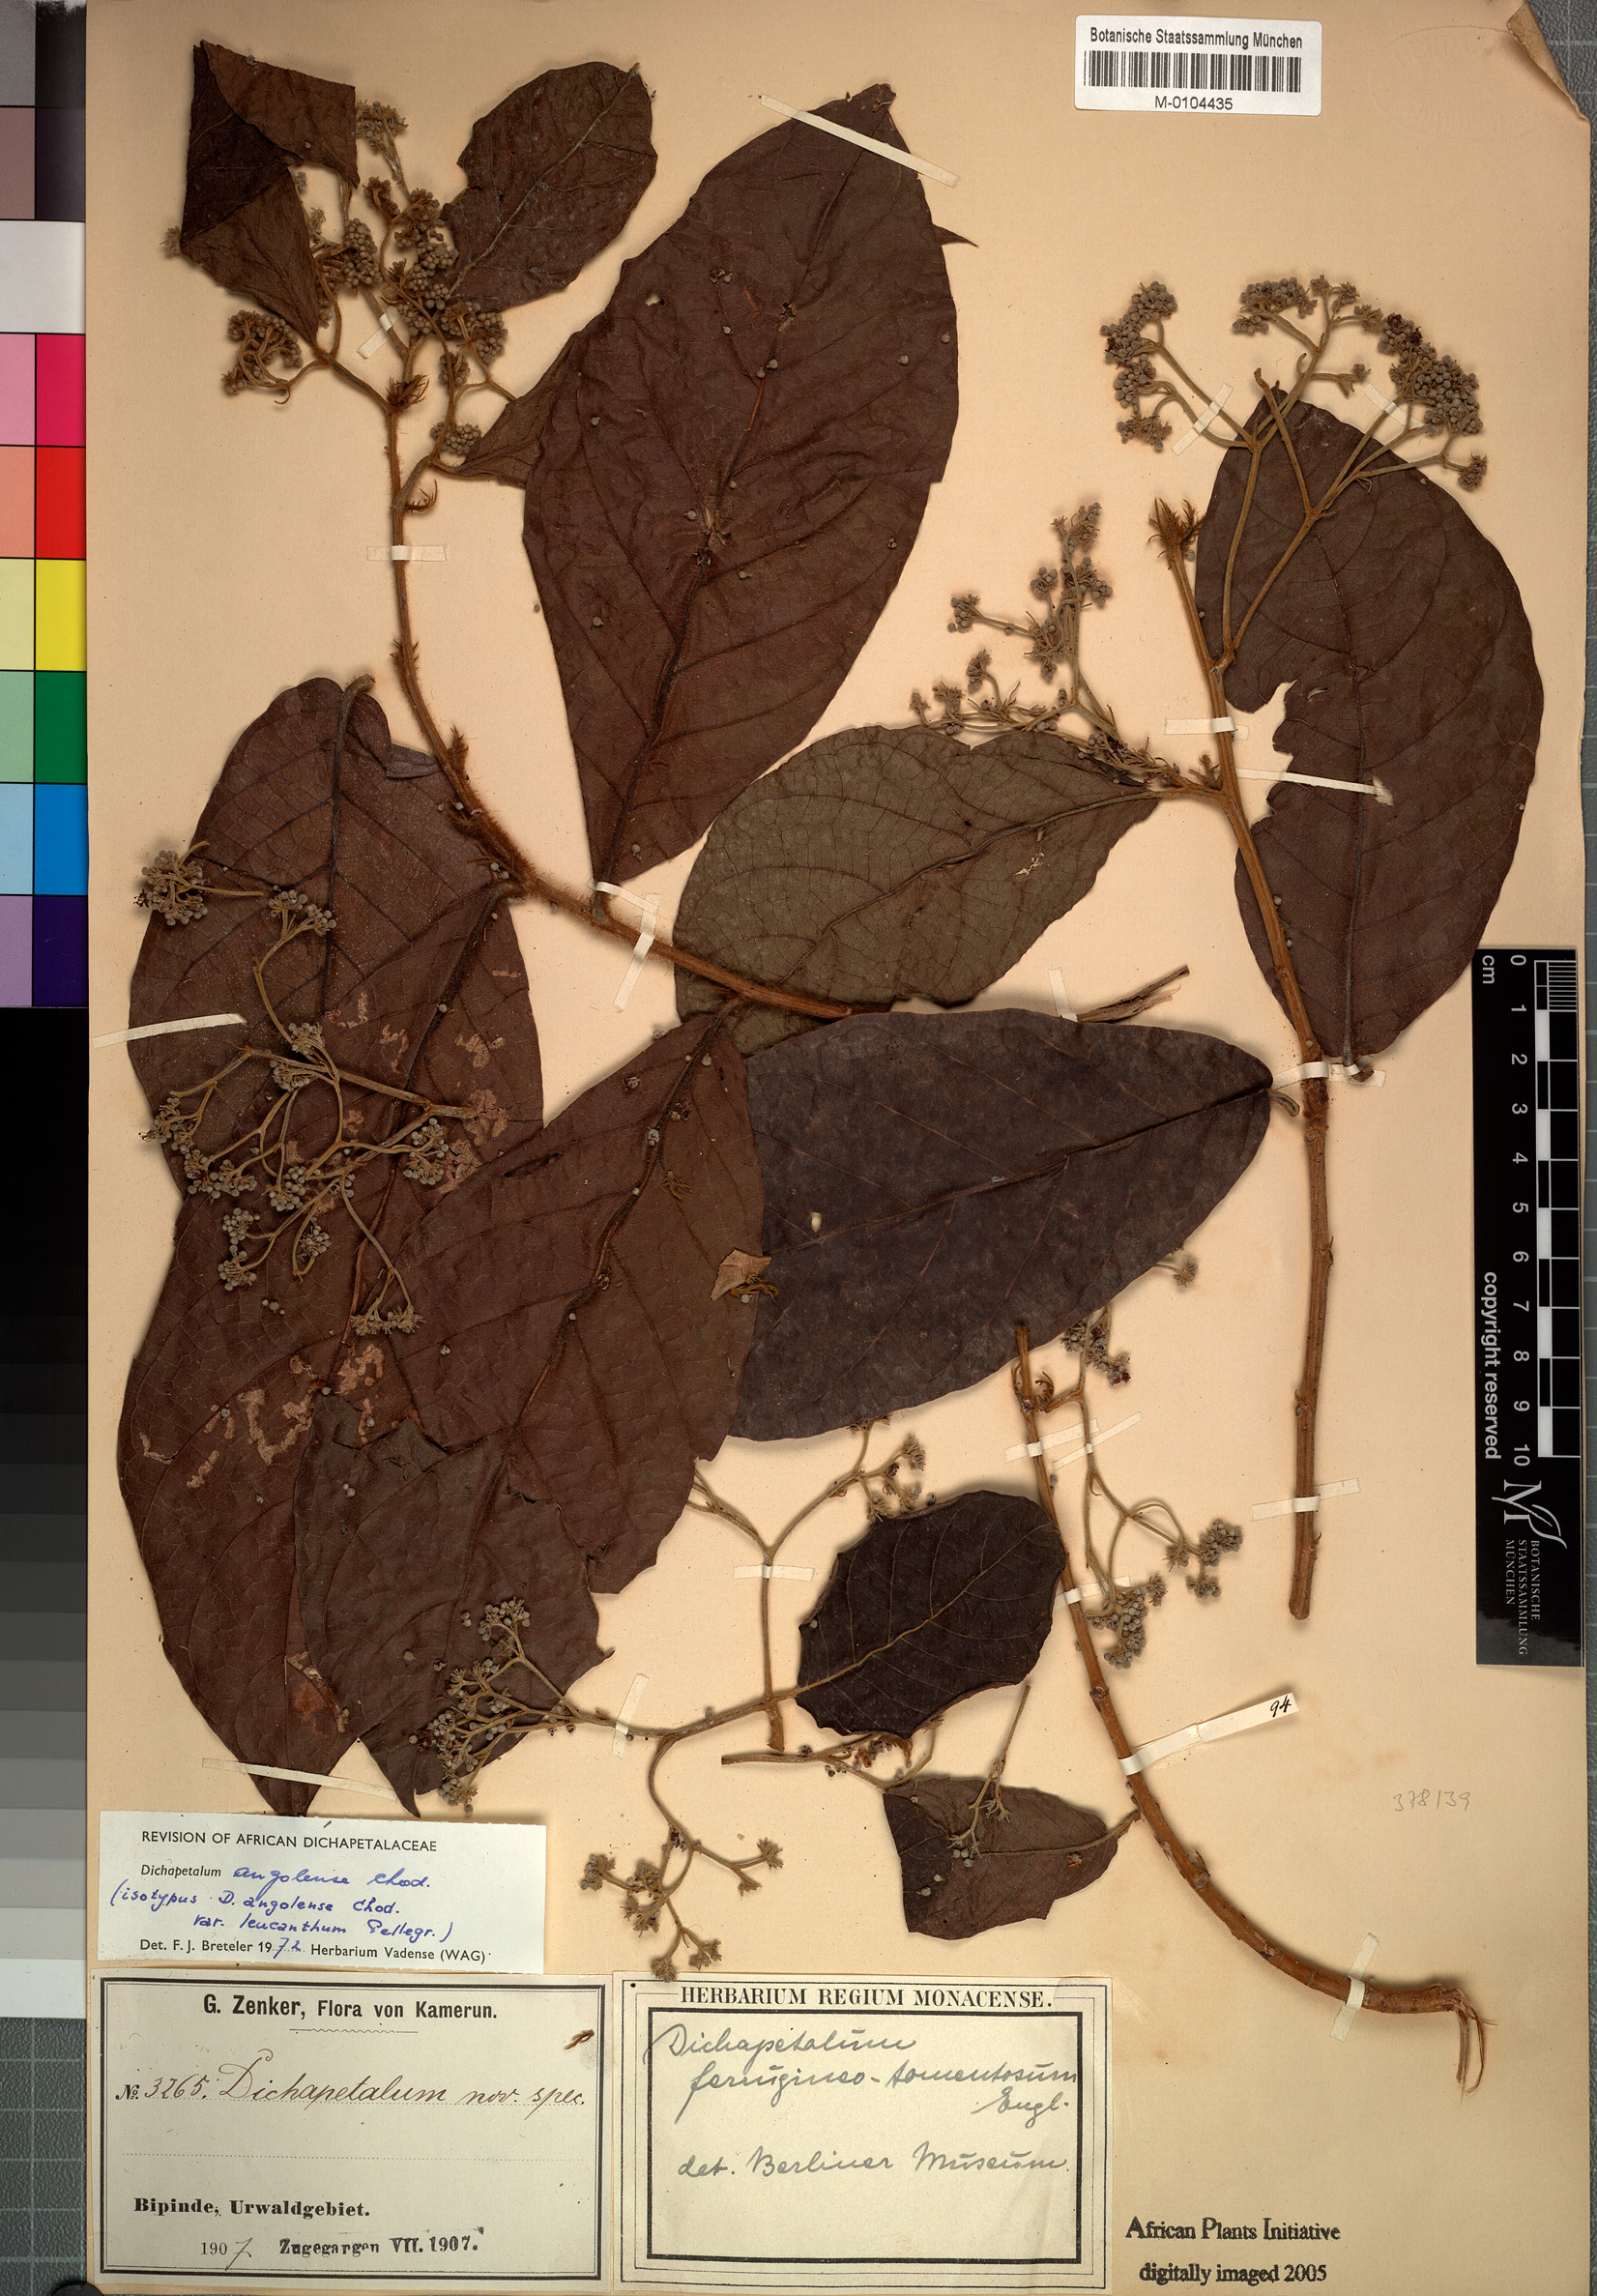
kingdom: Plantae
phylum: Tracheophyta
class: Magnoliopsida
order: Malpighiales
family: Dichapetalaceae
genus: Dichapetalum
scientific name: Dichapetalum angolense
